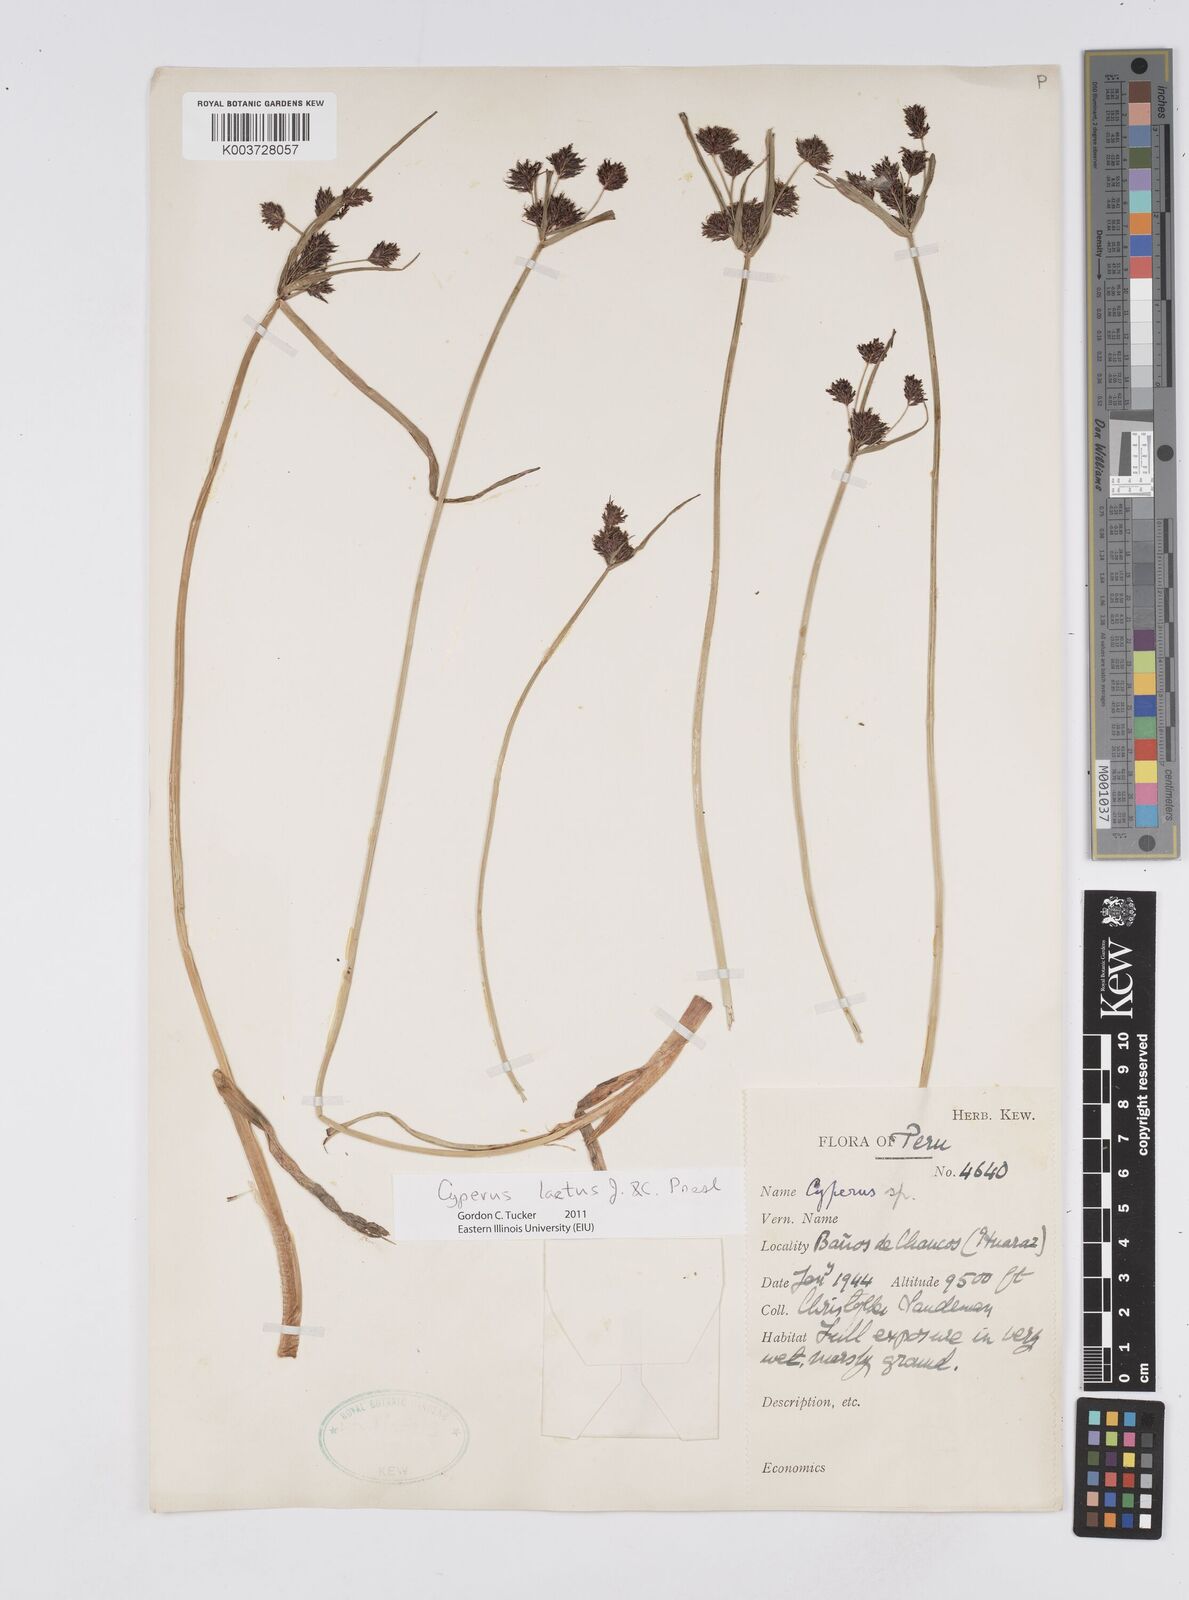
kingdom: Plantae
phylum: Tracheophyta
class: Liliopsida
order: Poales
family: Cyperaceae
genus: Cyperus
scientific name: Cyperus laetus
